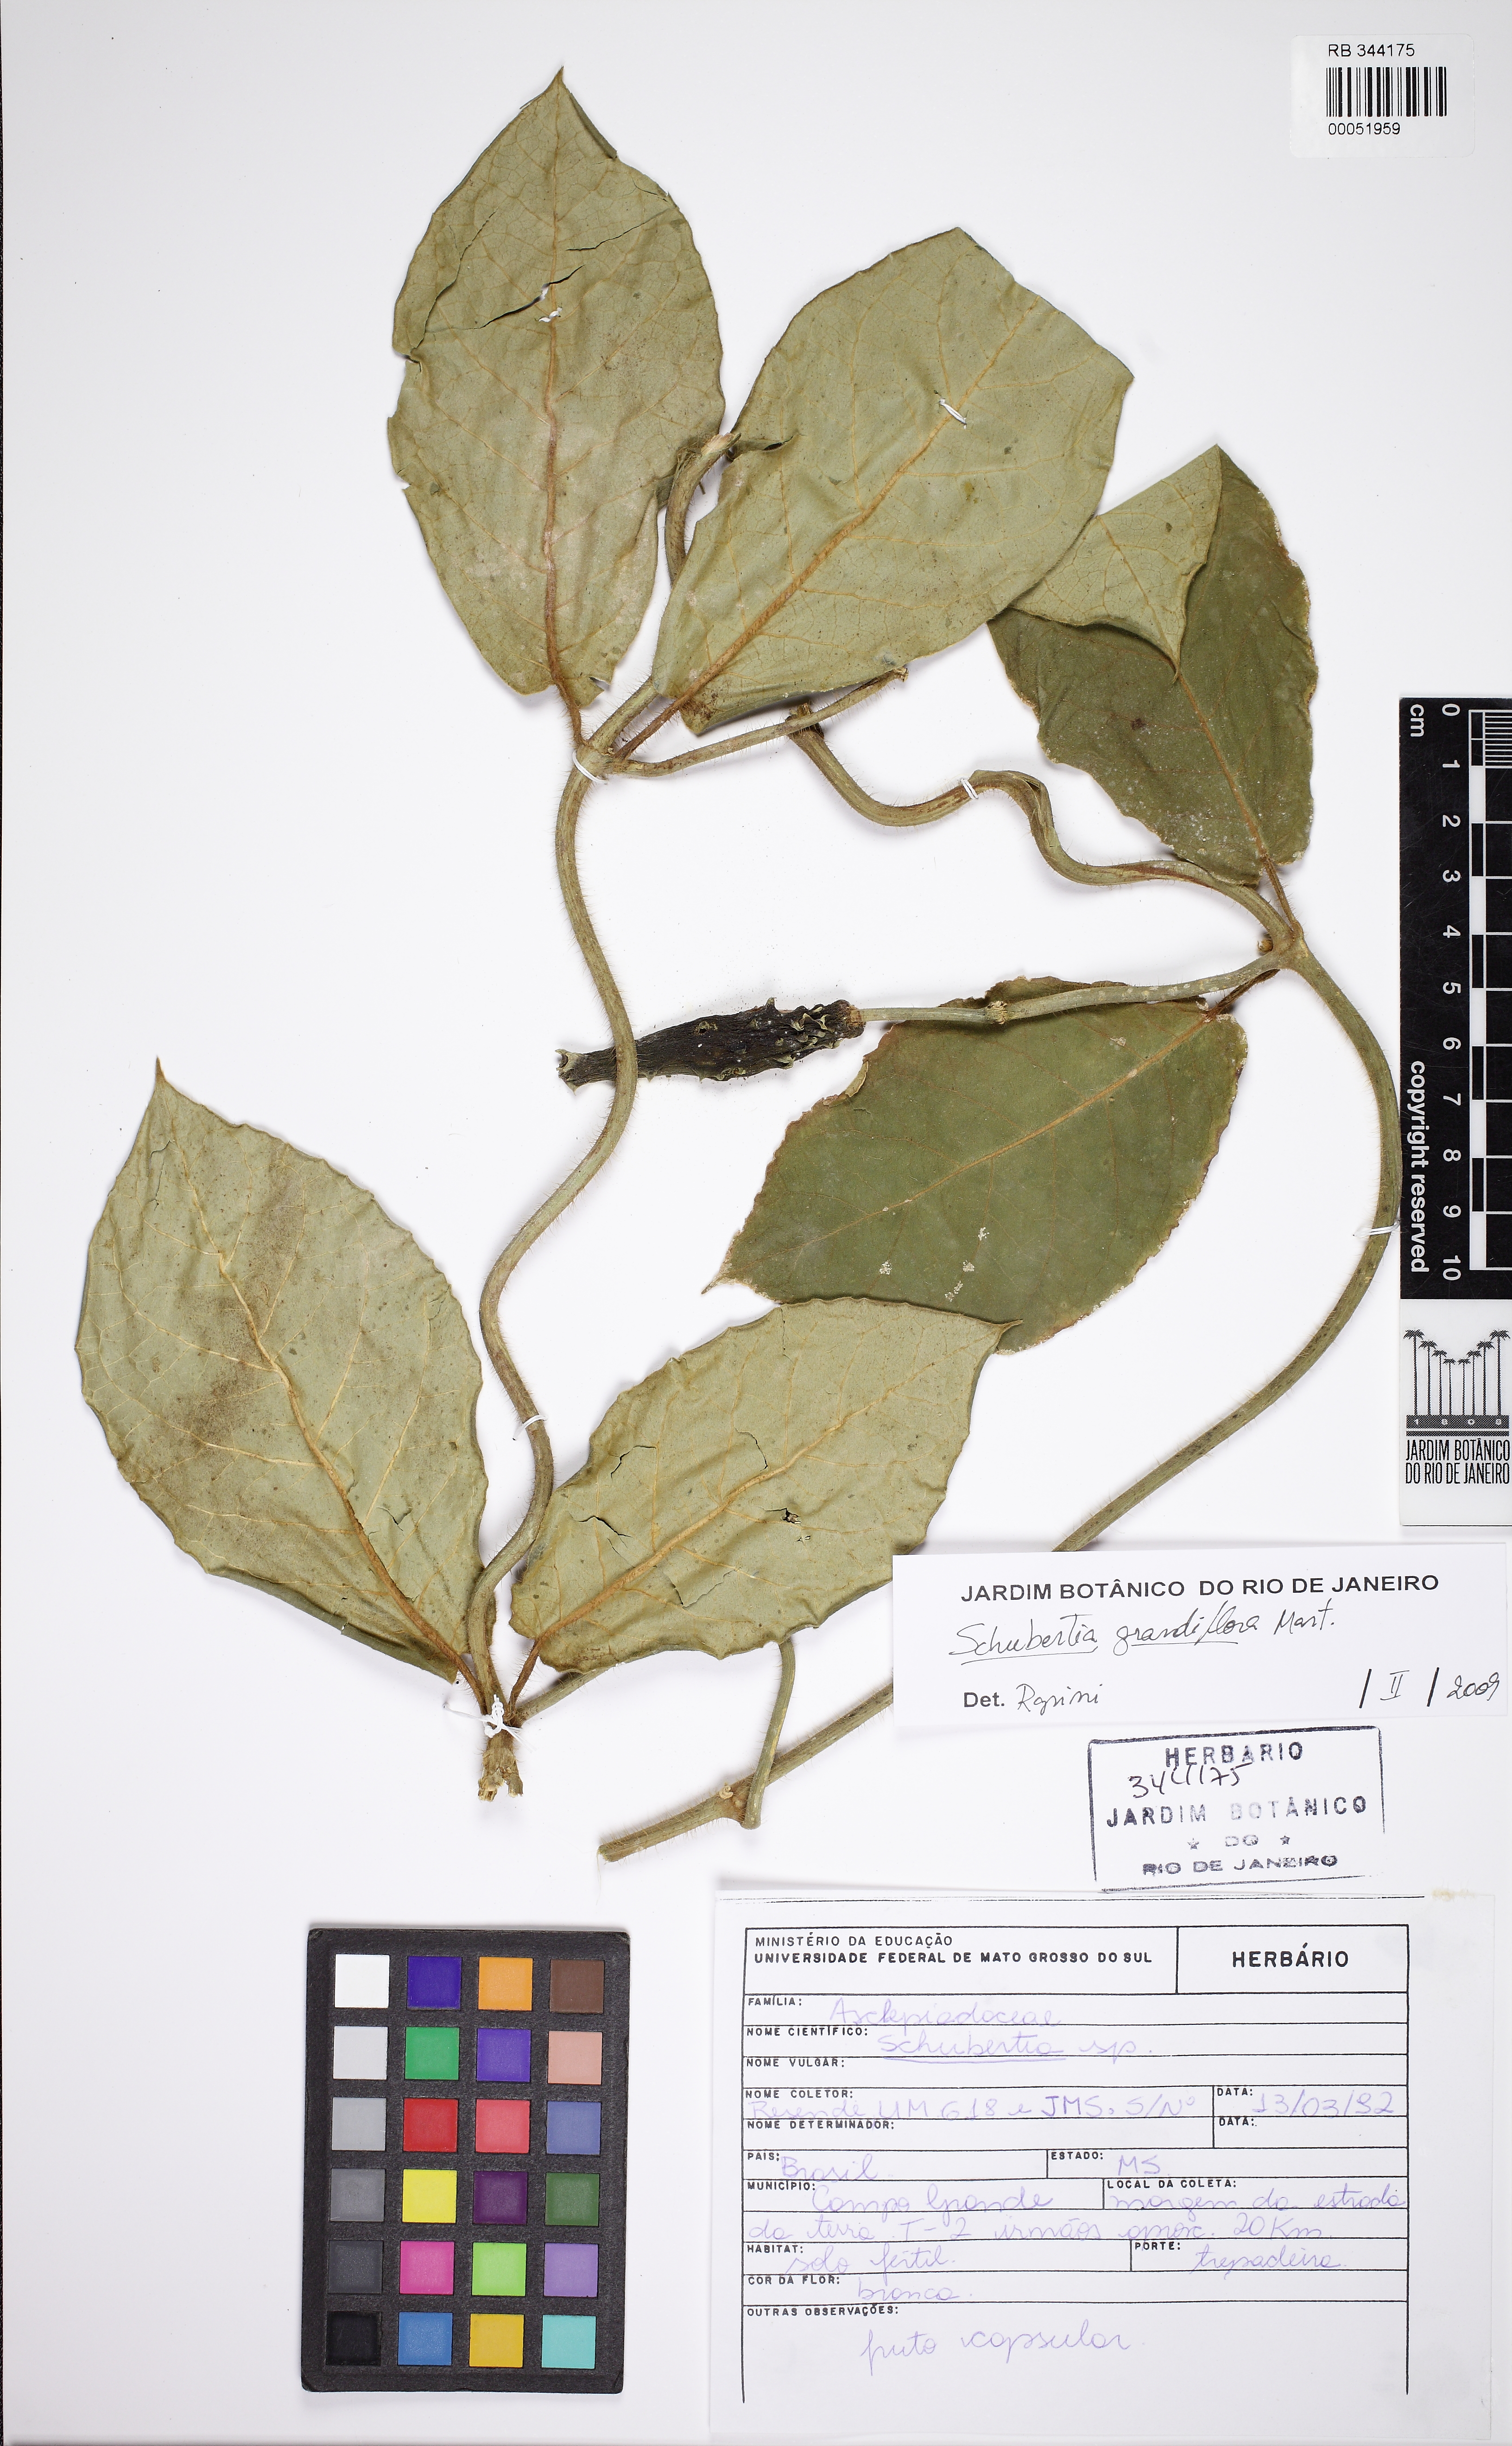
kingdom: Plantae
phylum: Tracheophyta
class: Magnoliopsida
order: Gentianales
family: Apocynaceae
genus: Macroscepis
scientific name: Macroscepis grandiflora
